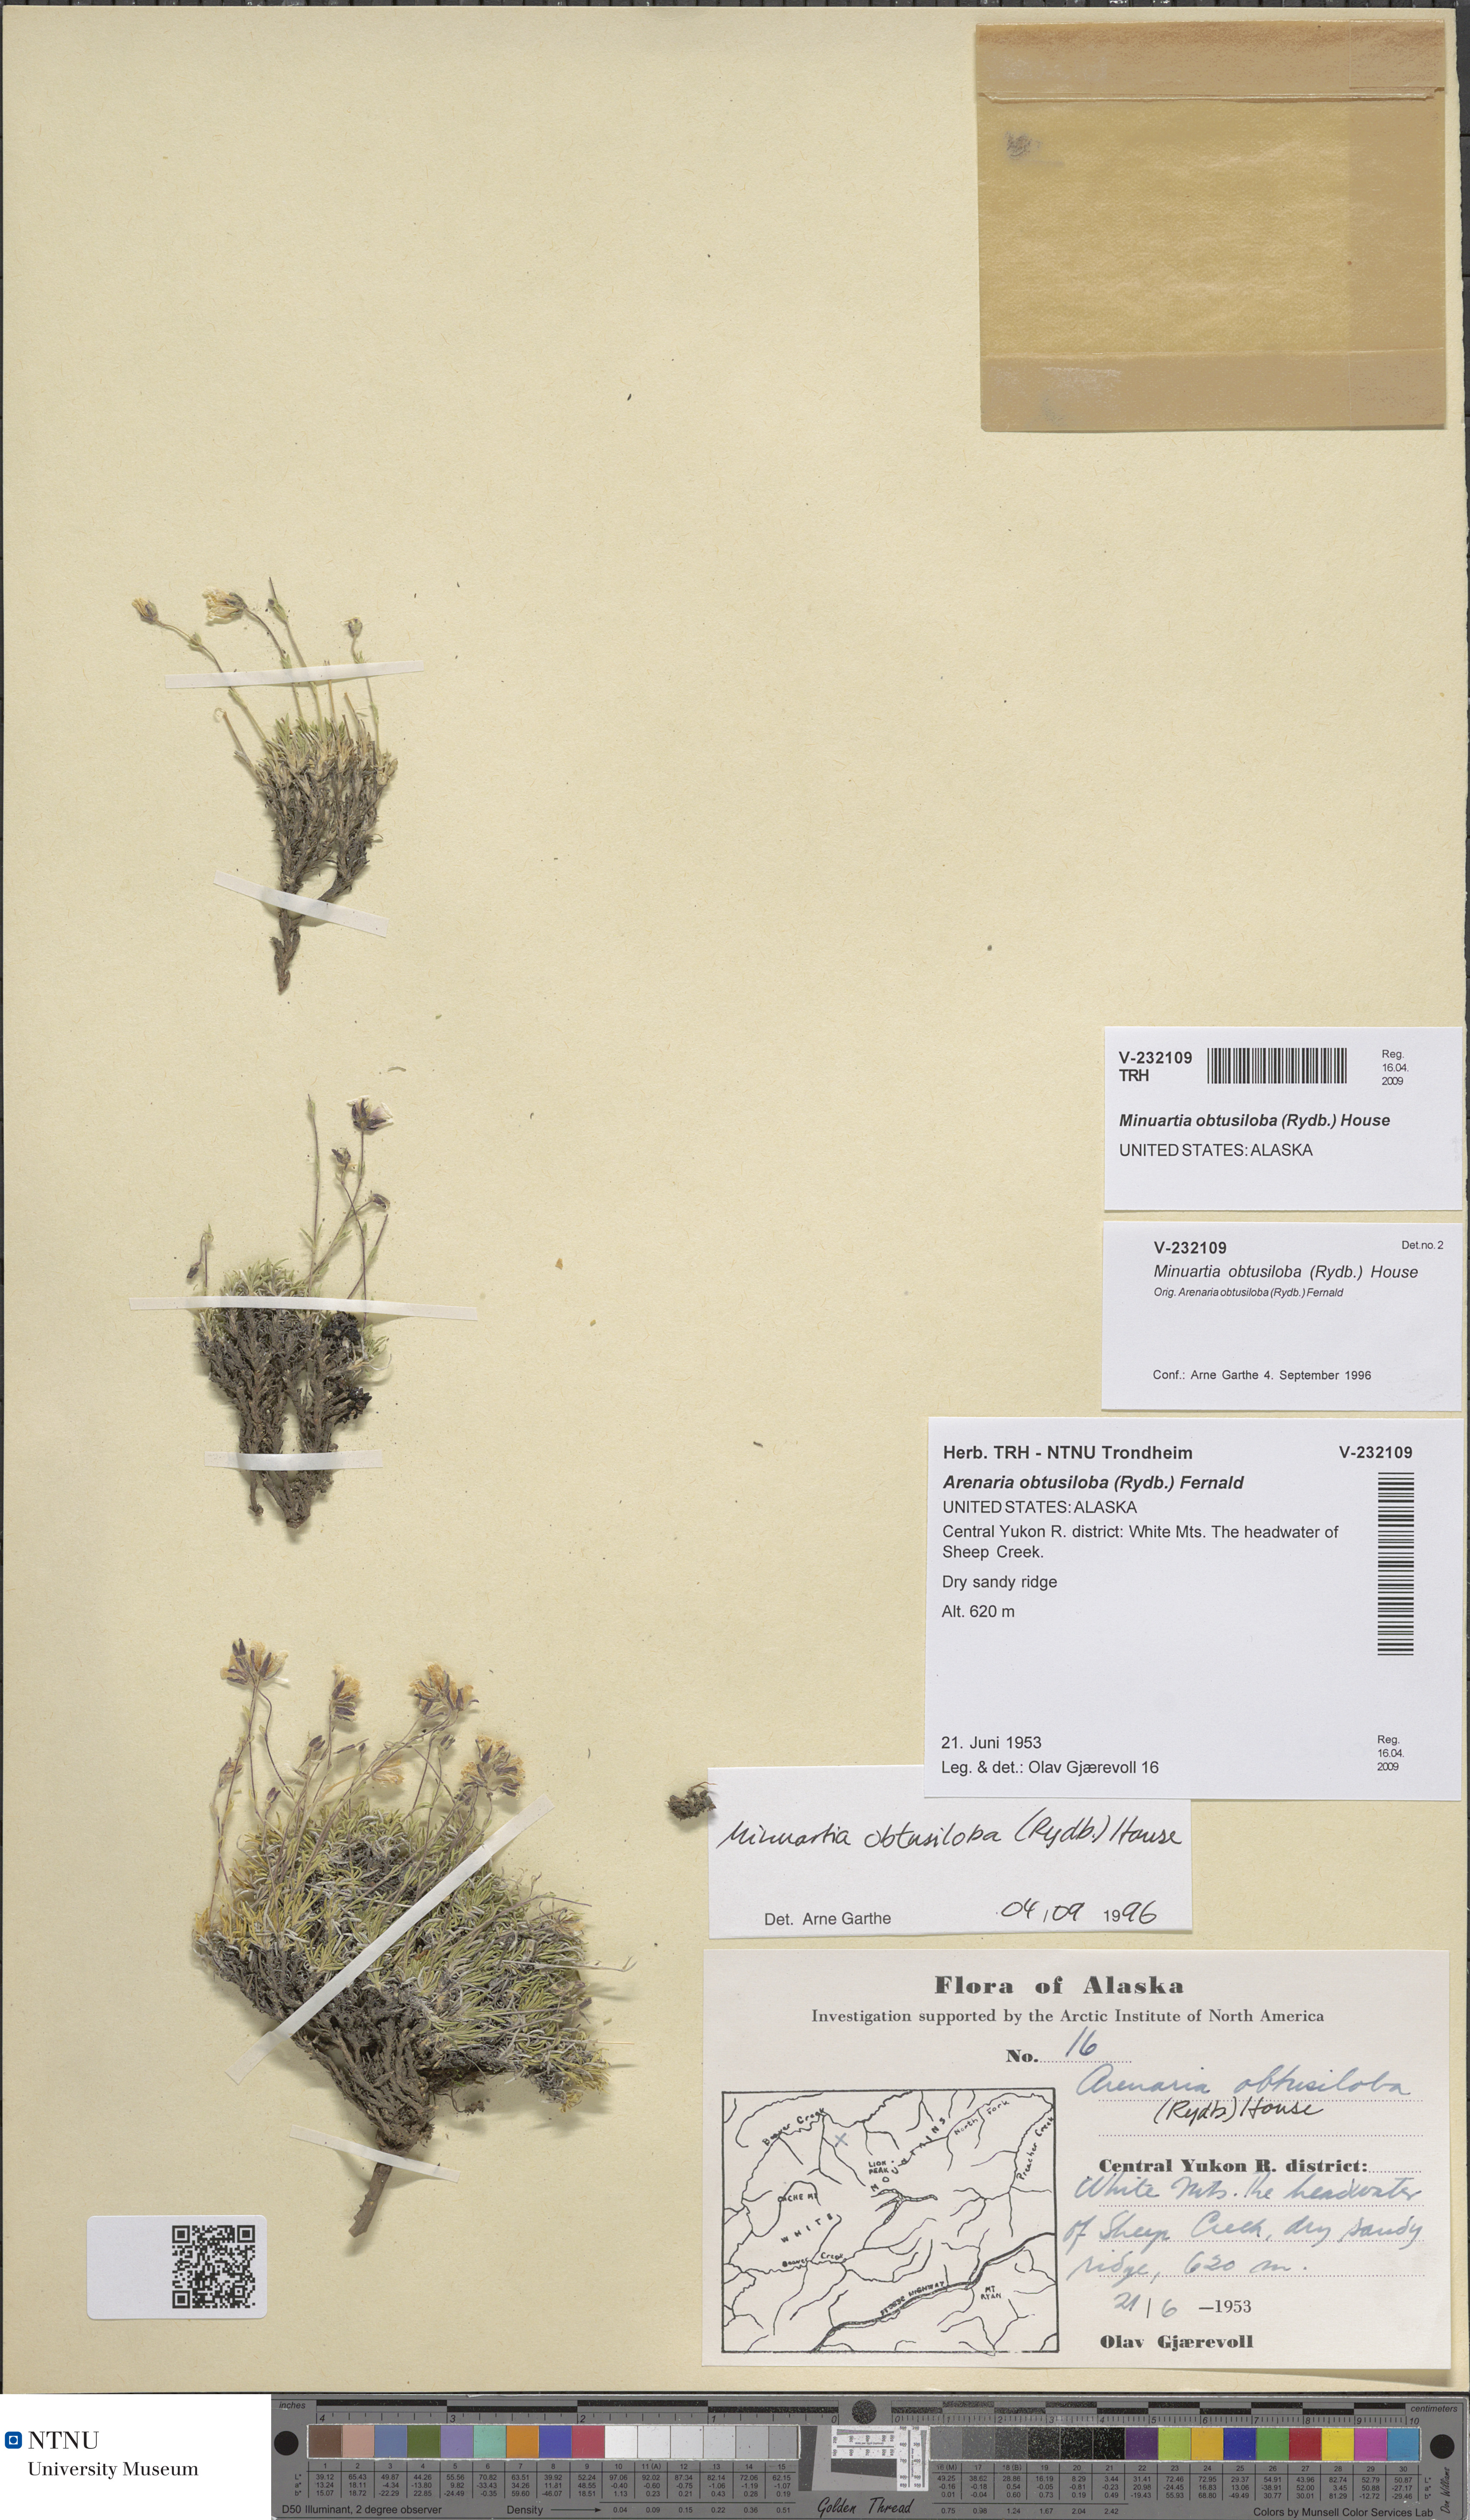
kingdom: Plantae
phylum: Tracheophyta
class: Magnoliopsida
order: Caryophyllales
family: Caryophyllaceae
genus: Cherleria
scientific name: Cherleria obtusiloba
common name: Alpine stitchwort
